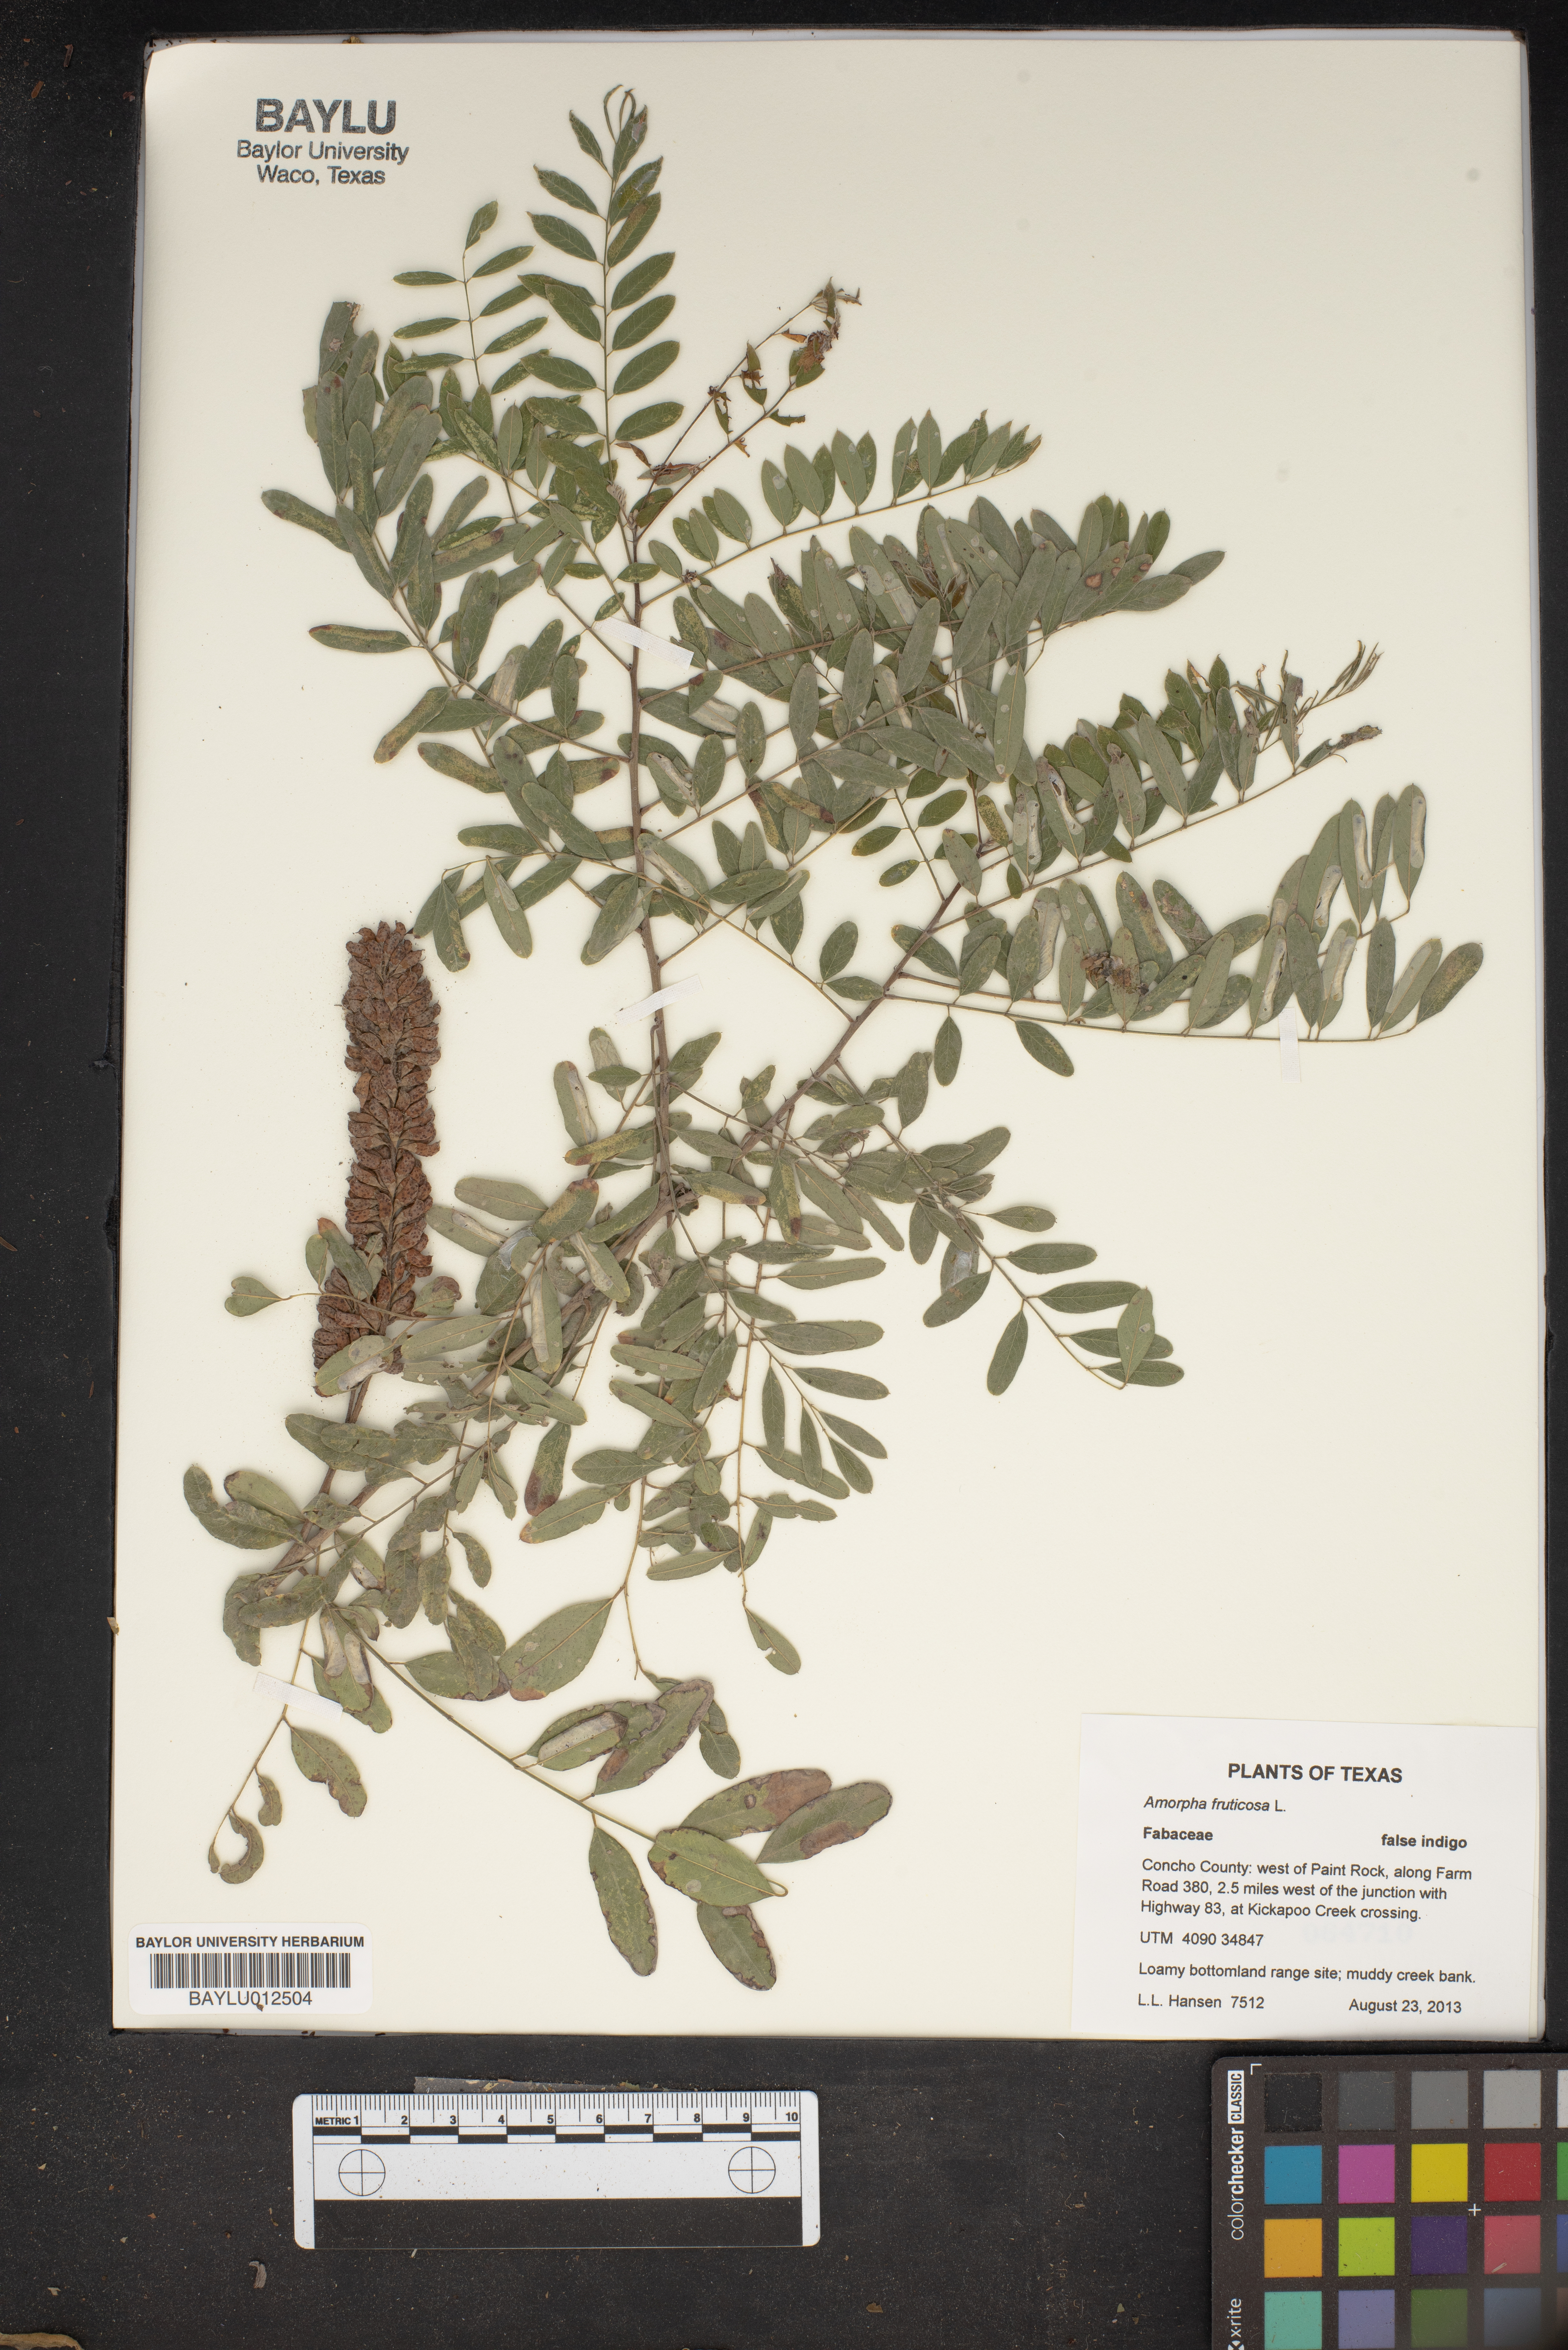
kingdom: Plantae
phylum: Tracheophyta
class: Magnoliopsida
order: Fabales
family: Fabaceae
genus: Amorpha
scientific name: Amorpha fruticosa
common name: False indigo
